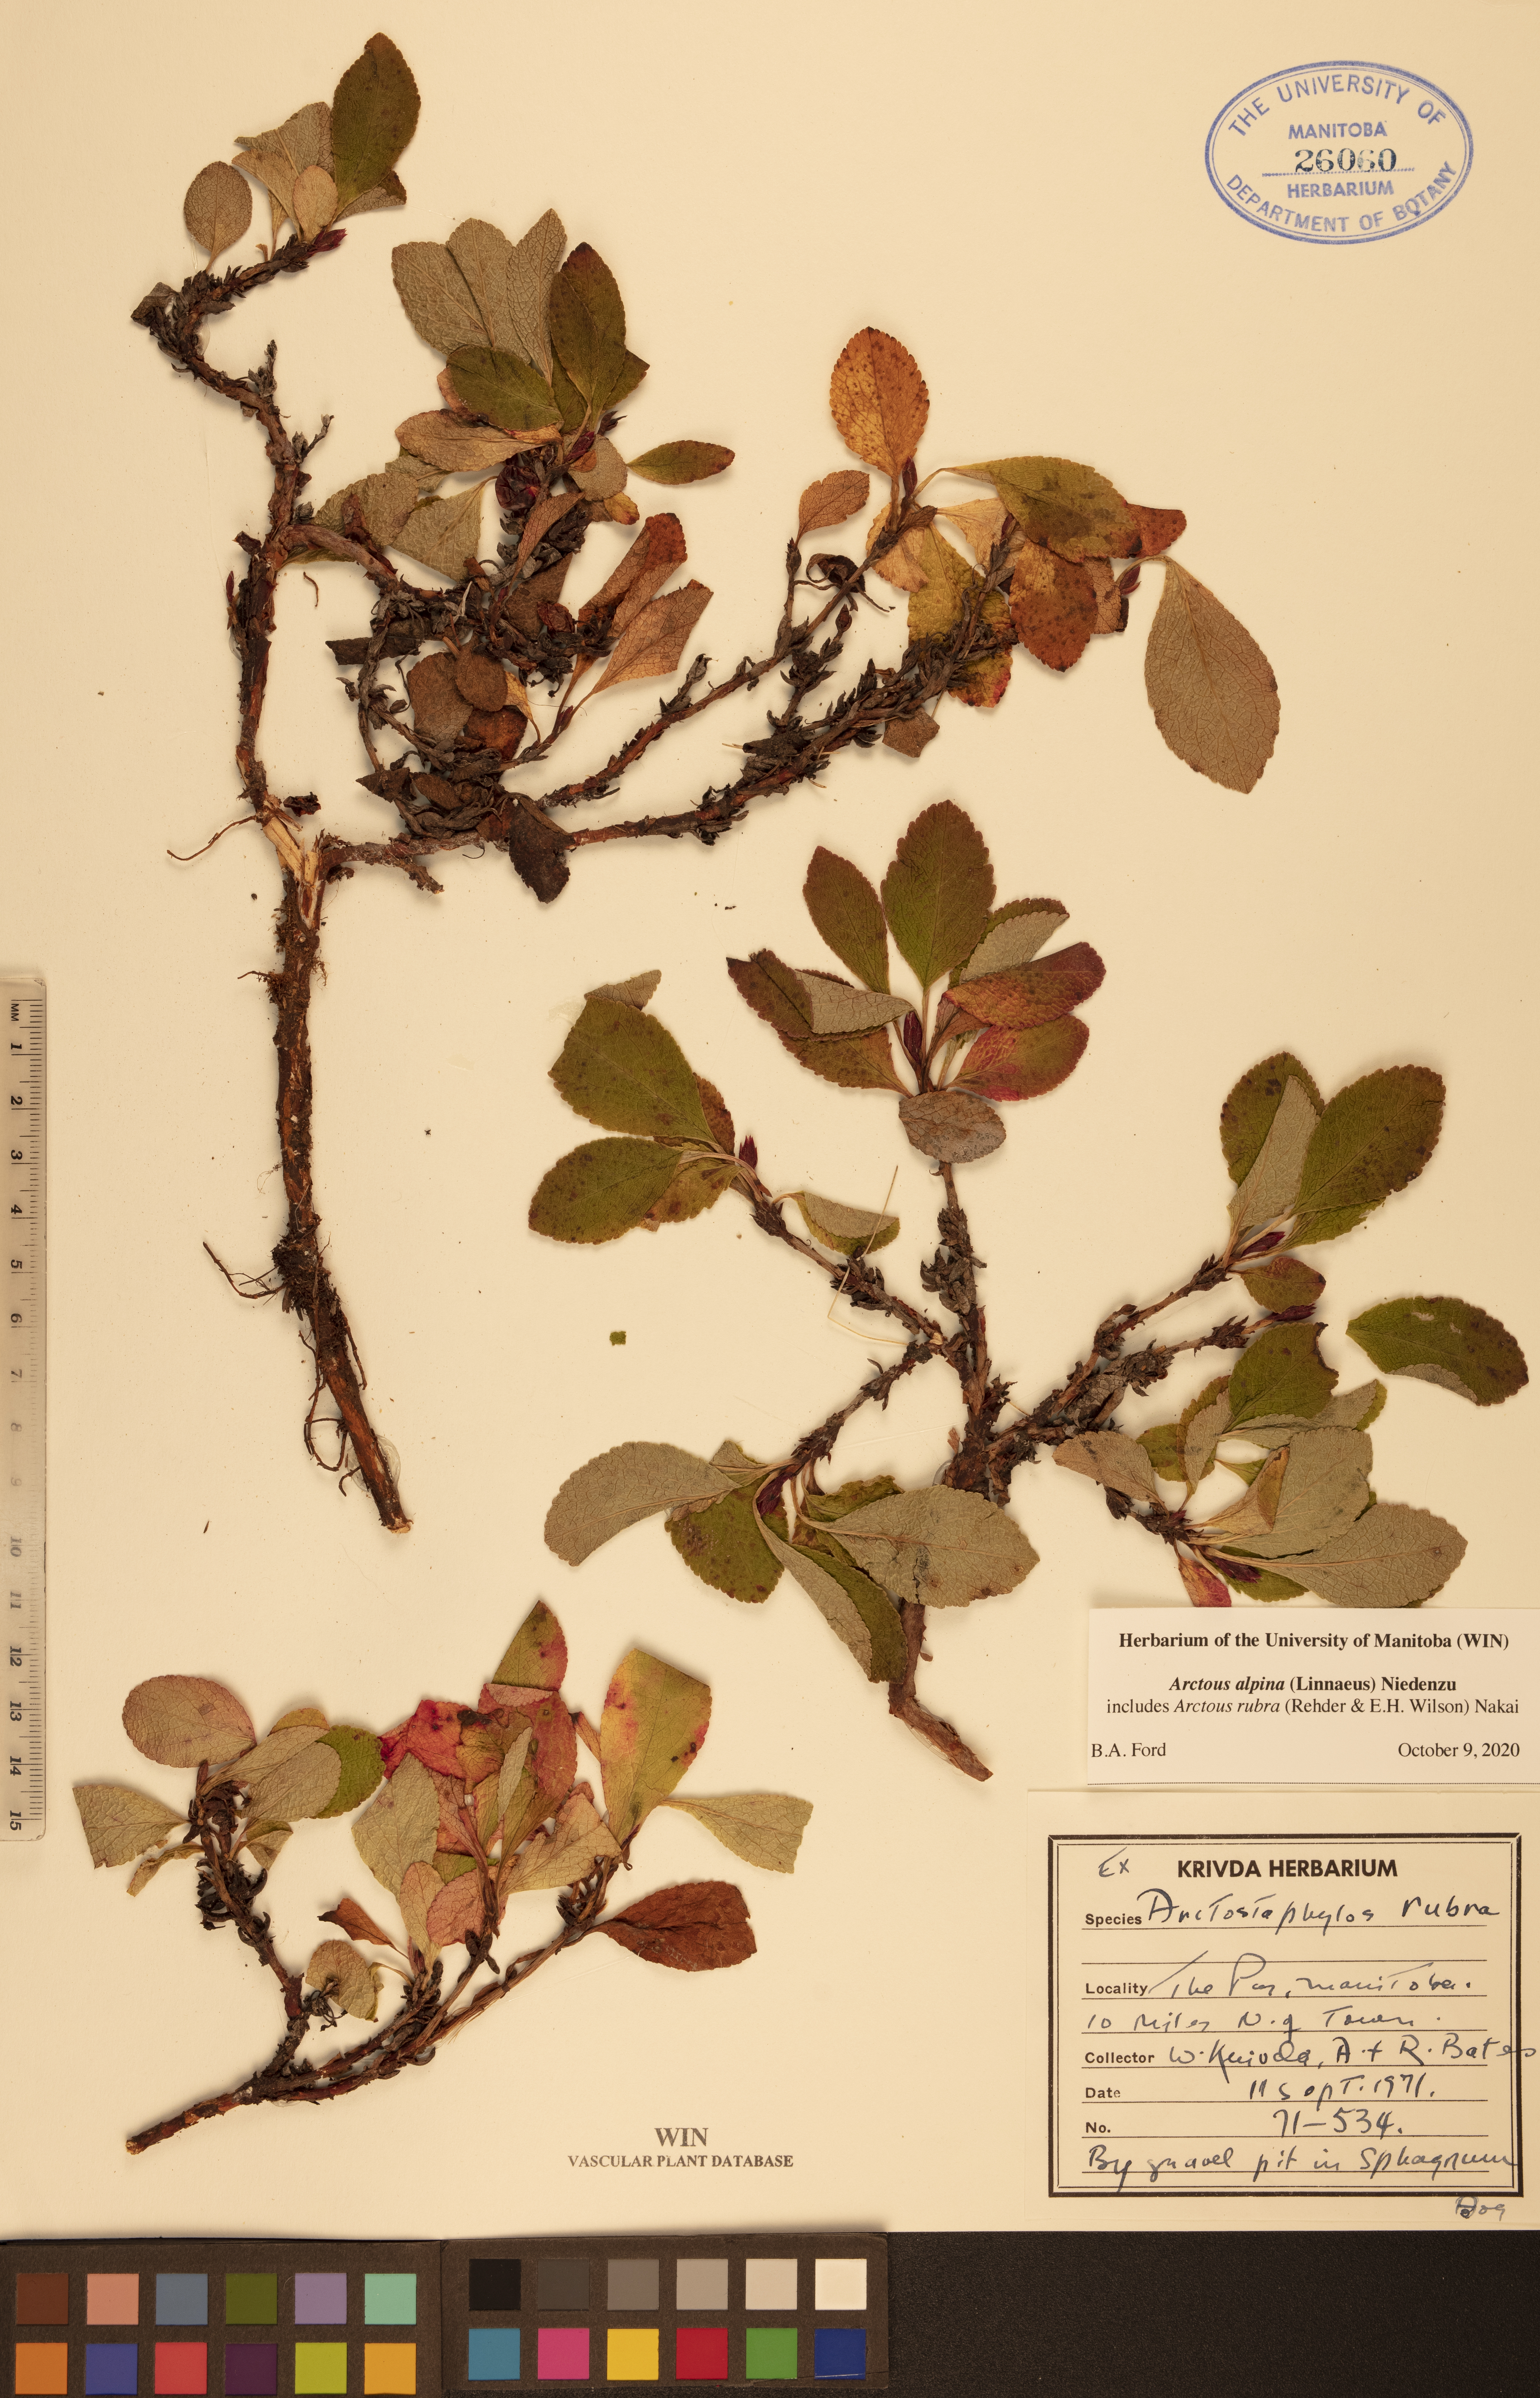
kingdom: Plantae
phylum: Tracheophyta
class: Magnoliopsida
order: Ericales
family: Ericaceae
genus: Arctostaphylos
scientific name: Arctostaphylos alpinus
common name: Alpine bearberry
